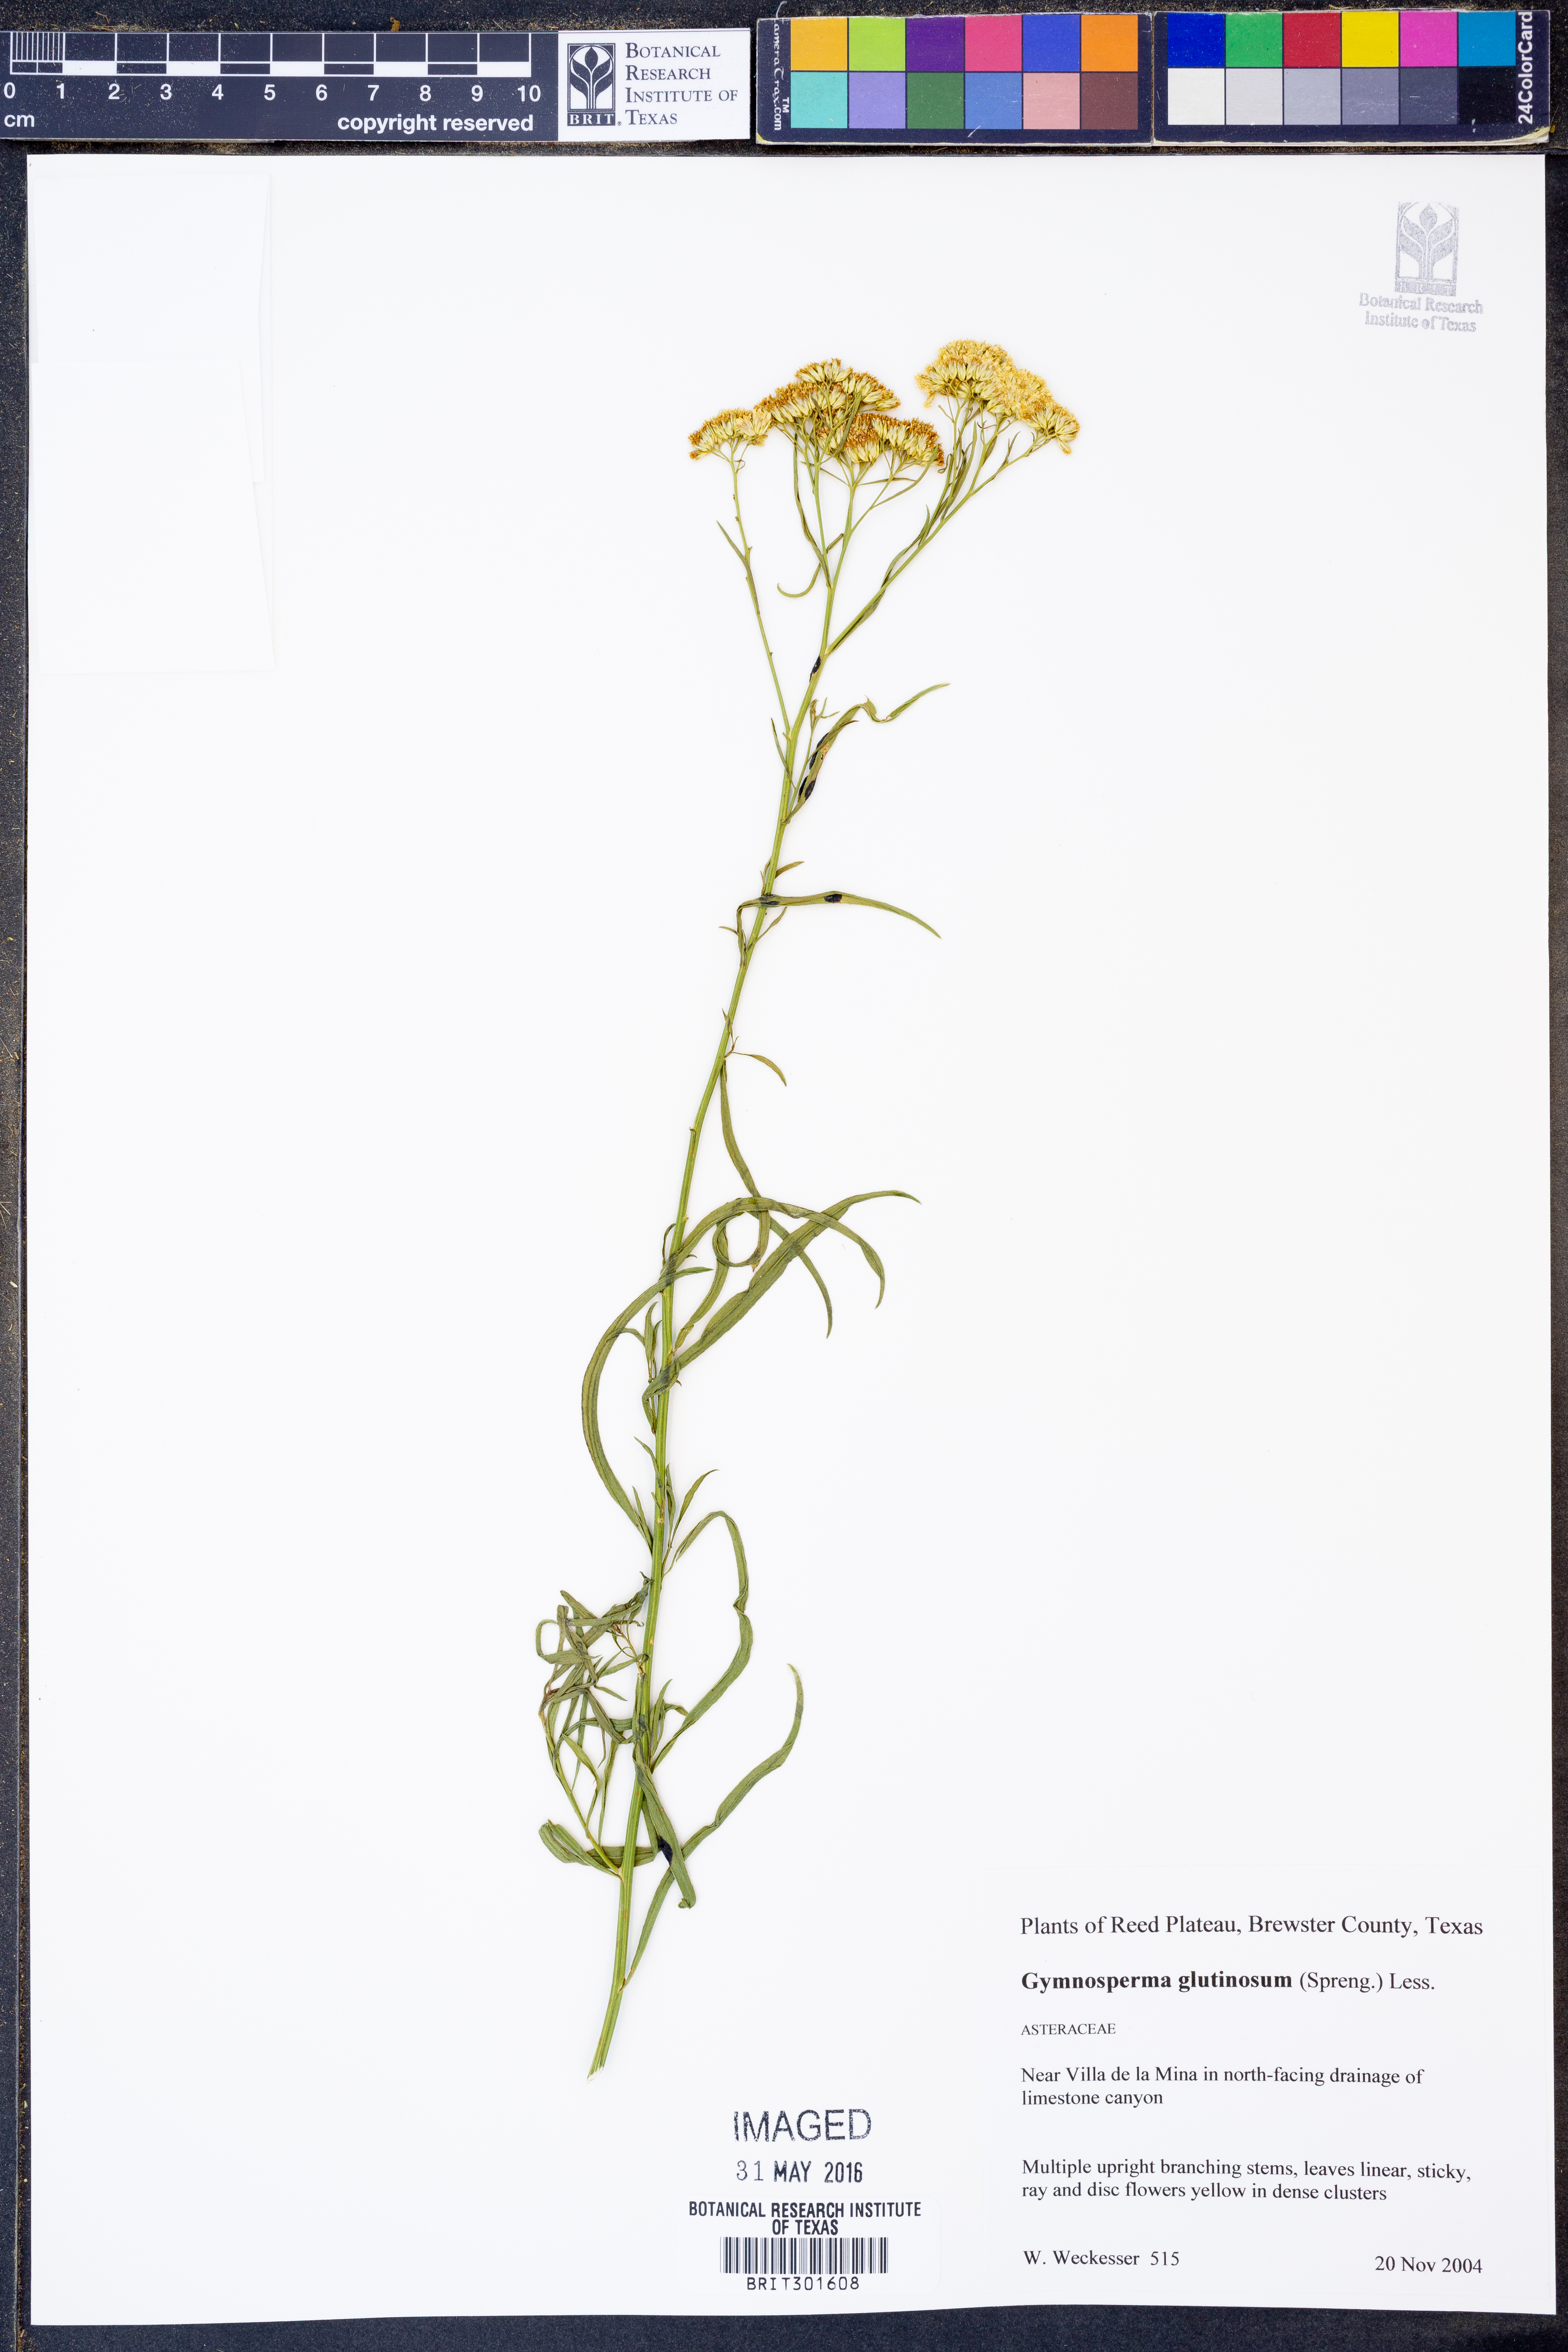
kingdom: Plantae
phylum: Tracheophyta
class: Magnoliopsida
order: Asterales
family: Asteraceae
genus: Gymnosperma
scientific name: Gymnosperma glutinosum
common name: Gumhead
